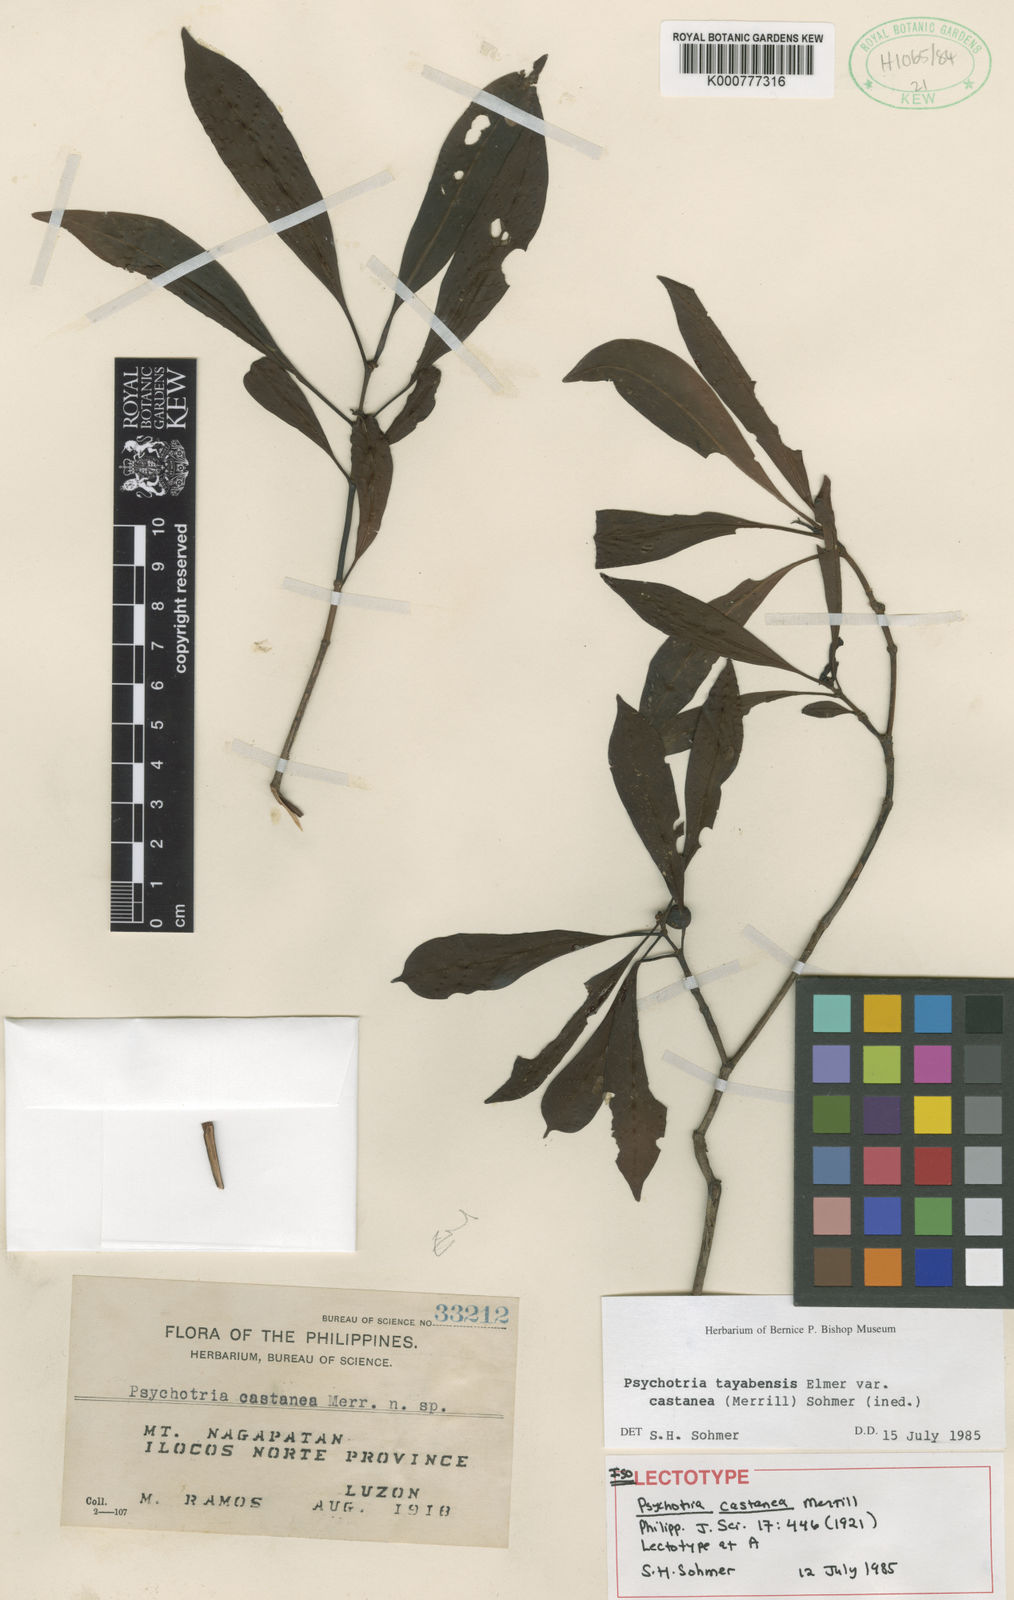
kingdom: Plantae
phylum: Tracheophyta
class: Magnoliopsida
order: Gentianales
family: Rubiaceae
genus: Psychotria
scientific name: Psychotria tayabensis
